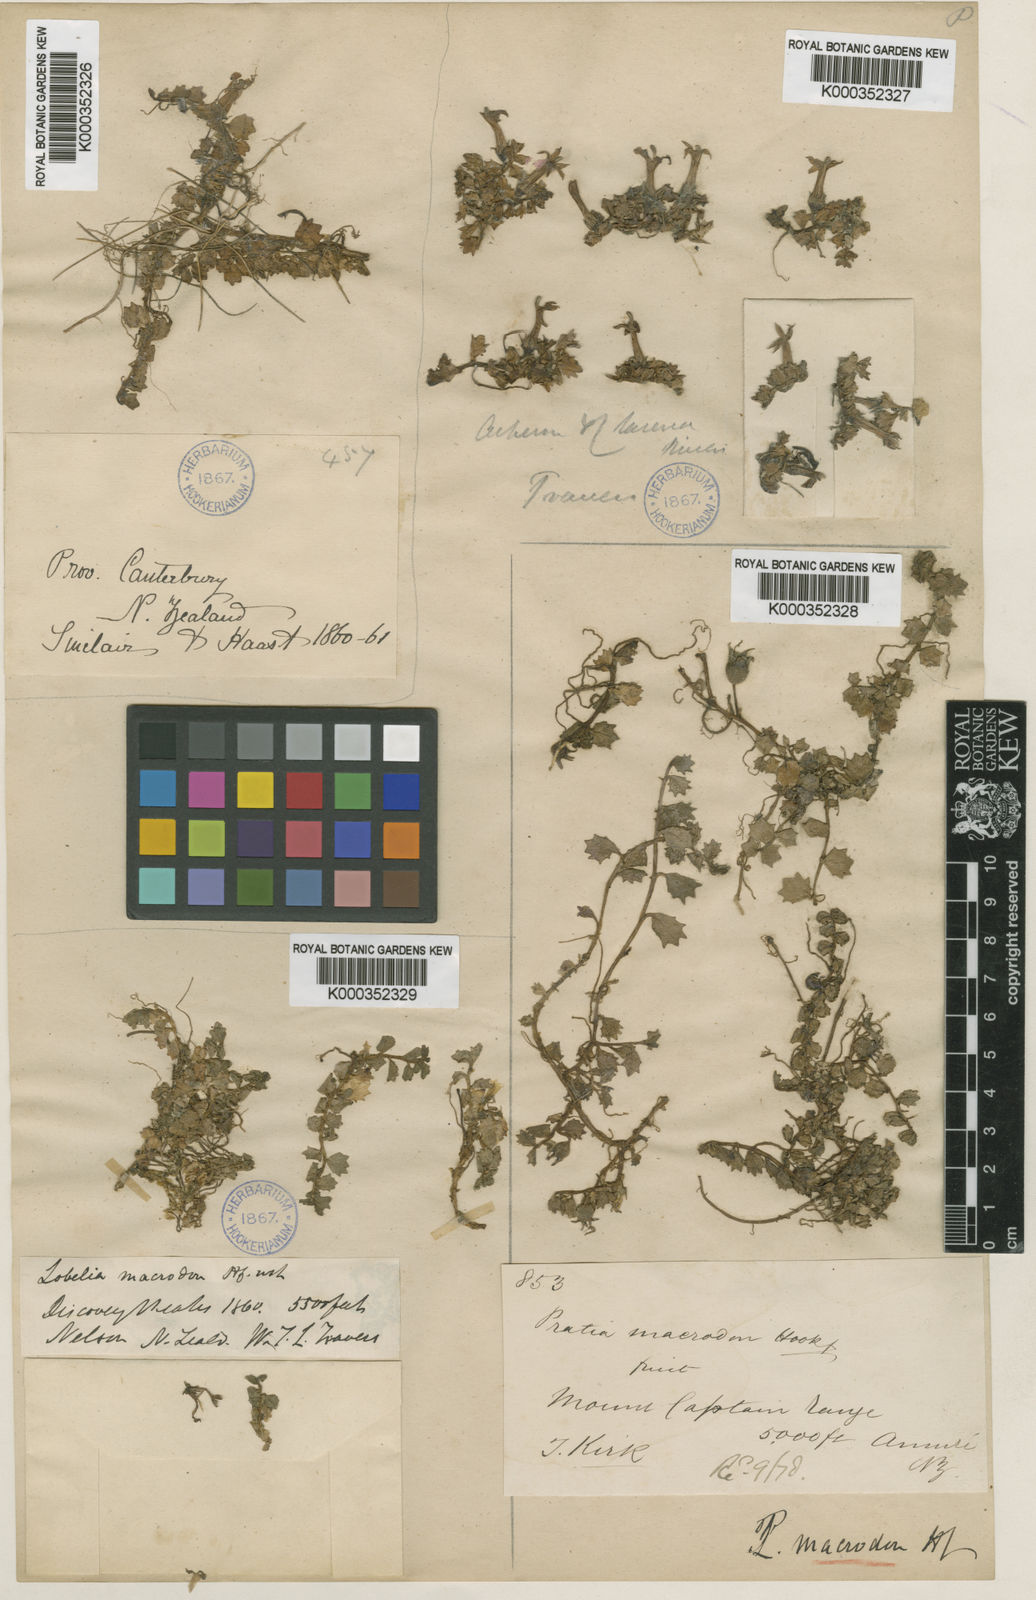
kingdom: Plantae
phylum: Tracheophyta
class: Magnoliopsida
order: Asterales
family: Campanulaceae
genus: Lobelia
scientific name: Lobelia macrodon
